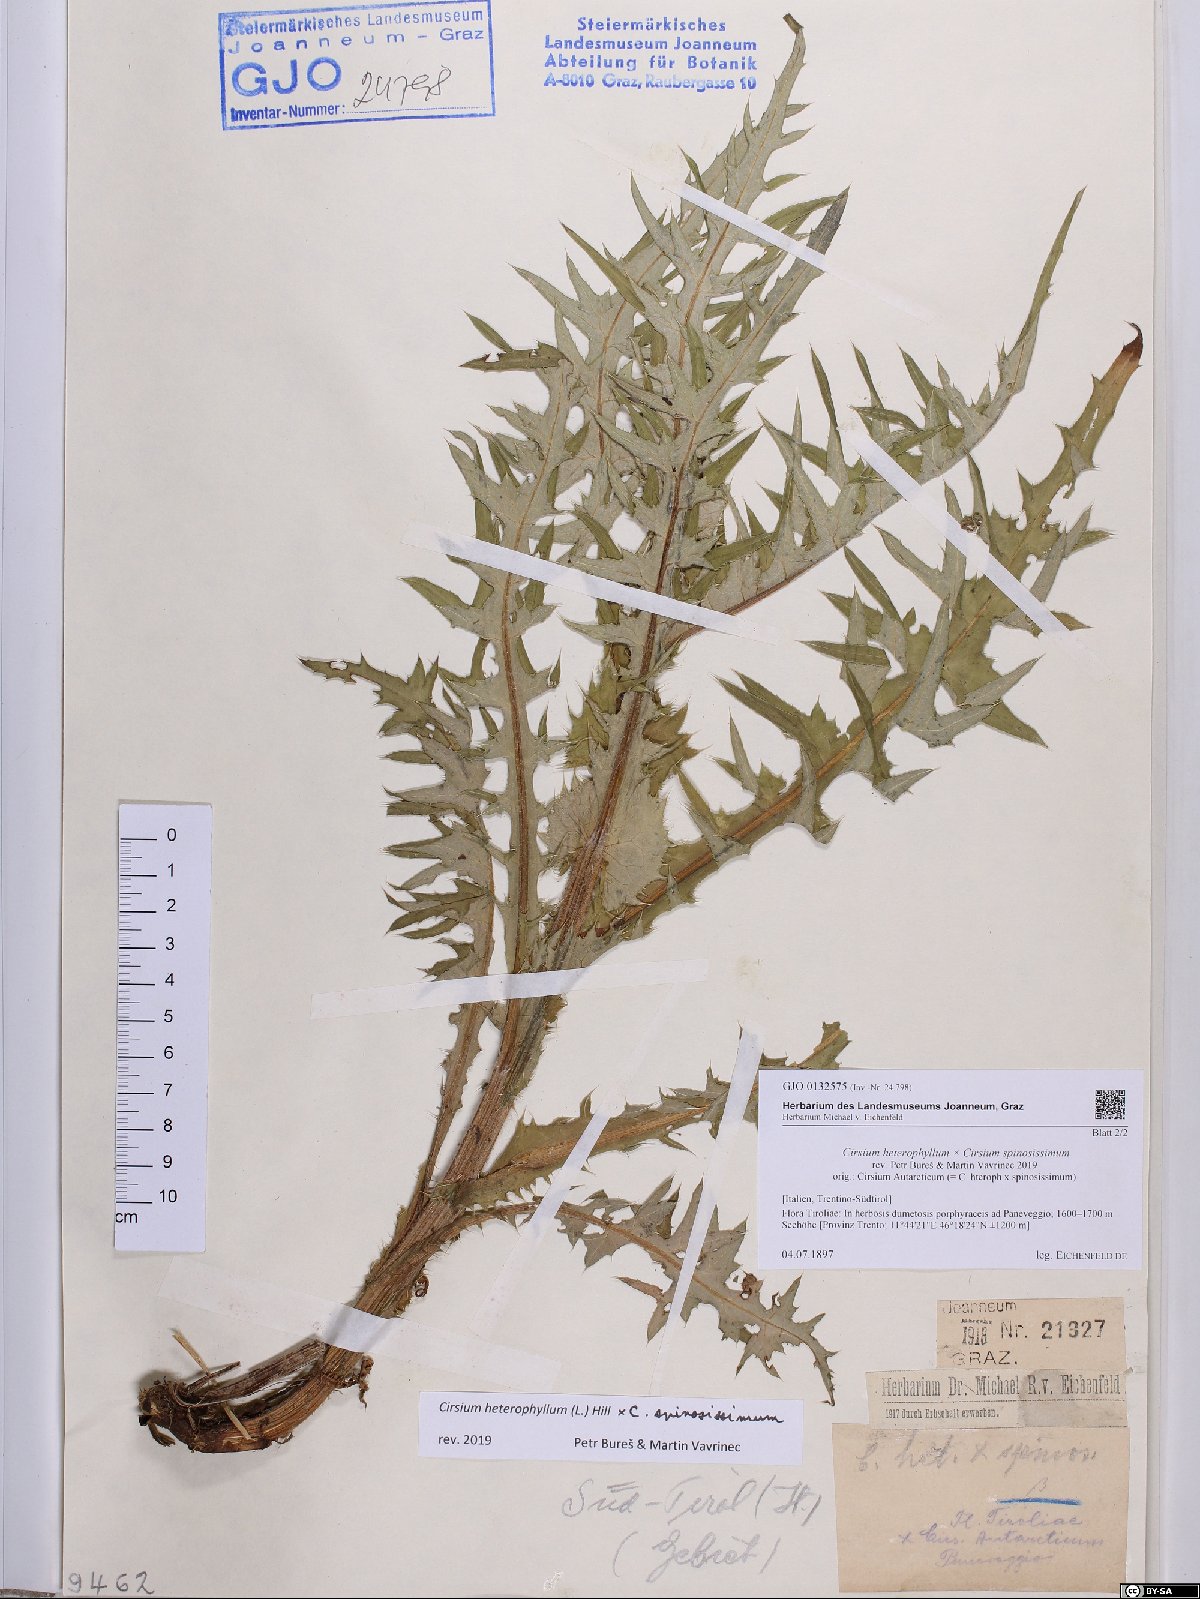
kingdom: Plantae
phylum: Tracheophyta
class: Magnoliopsida
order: Asterales
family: Asteraceae
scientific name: Asteraceae
